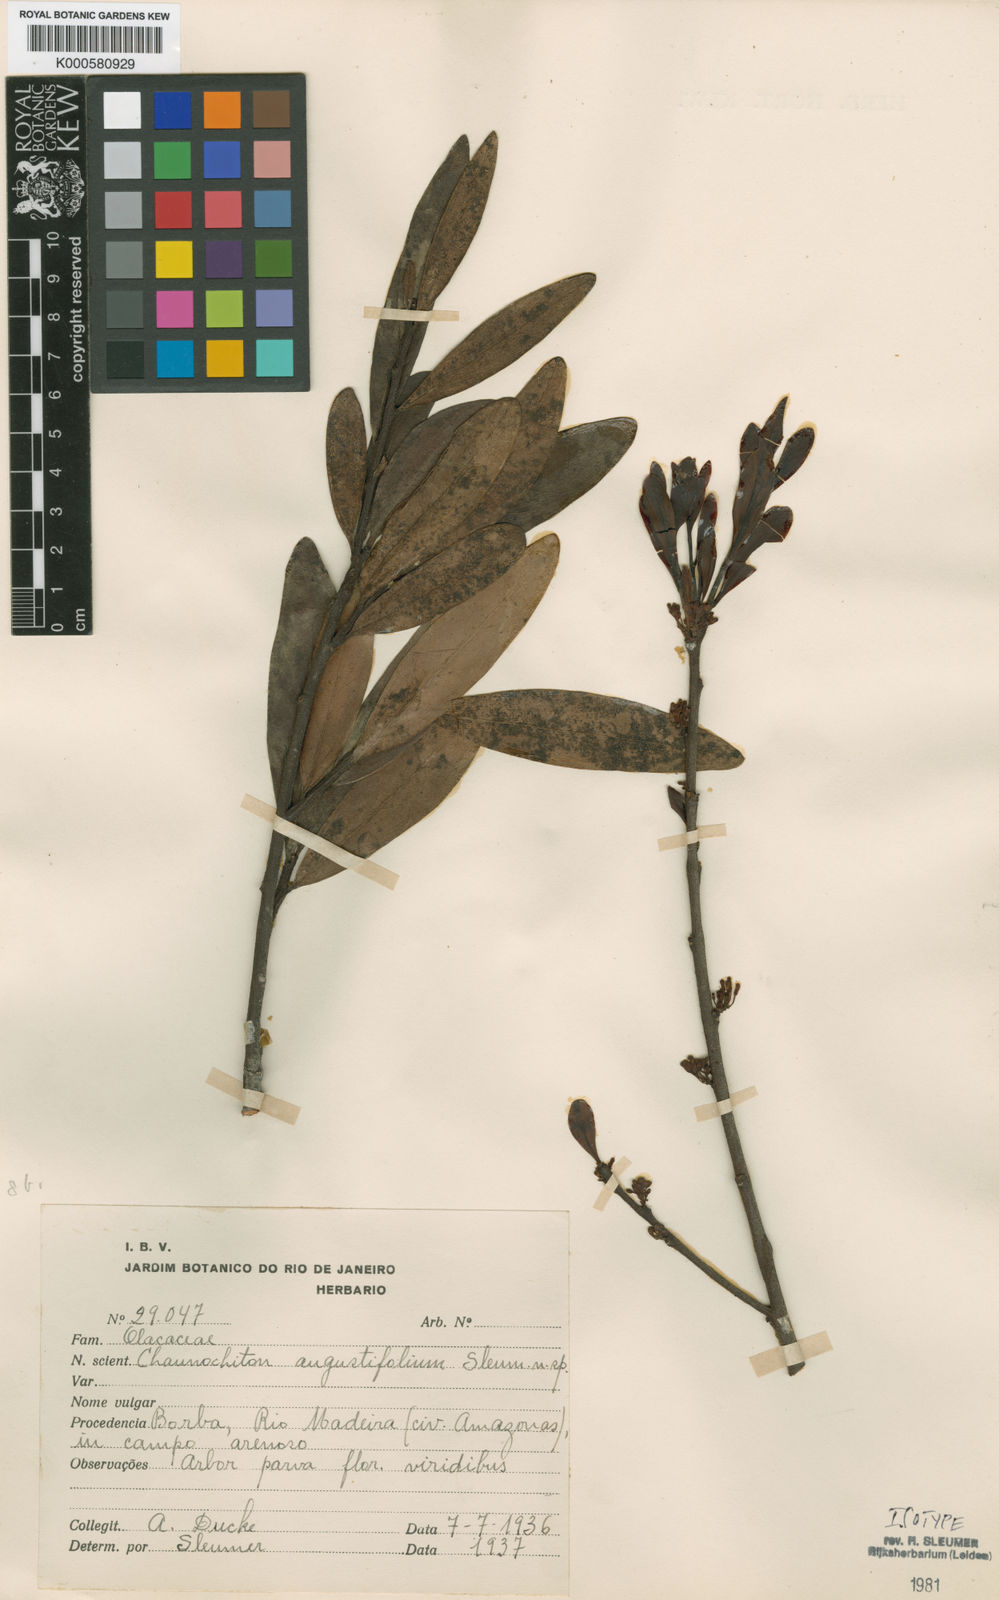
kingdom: Plantae
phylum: Tracheophyta
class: Magnoliopsida
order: Santalales
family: Aptandraceae
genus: Chaunochiton
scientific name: Chaunochiton angustifolium
